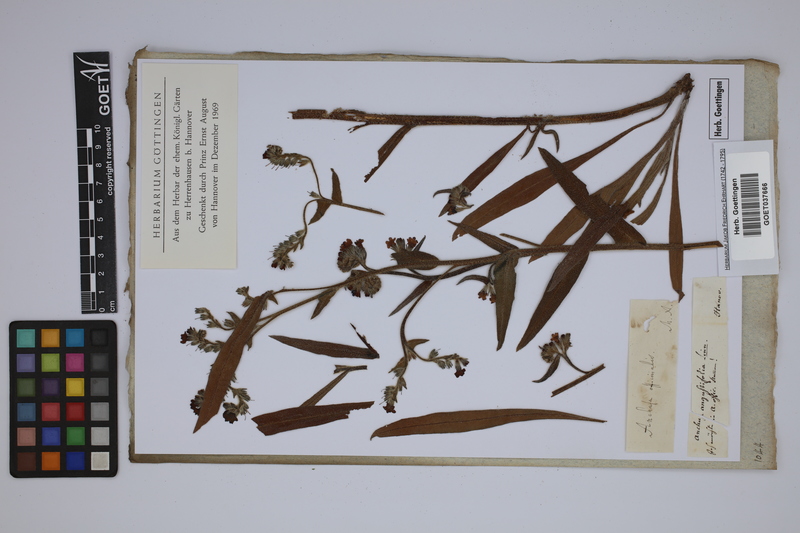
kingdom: Plantae
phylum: Tracheophyta
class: Magnoliopsida
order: Boraginales
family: Boraginaceae
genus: Anchusa
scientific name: Anchusa officinalis
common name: Alkanet
